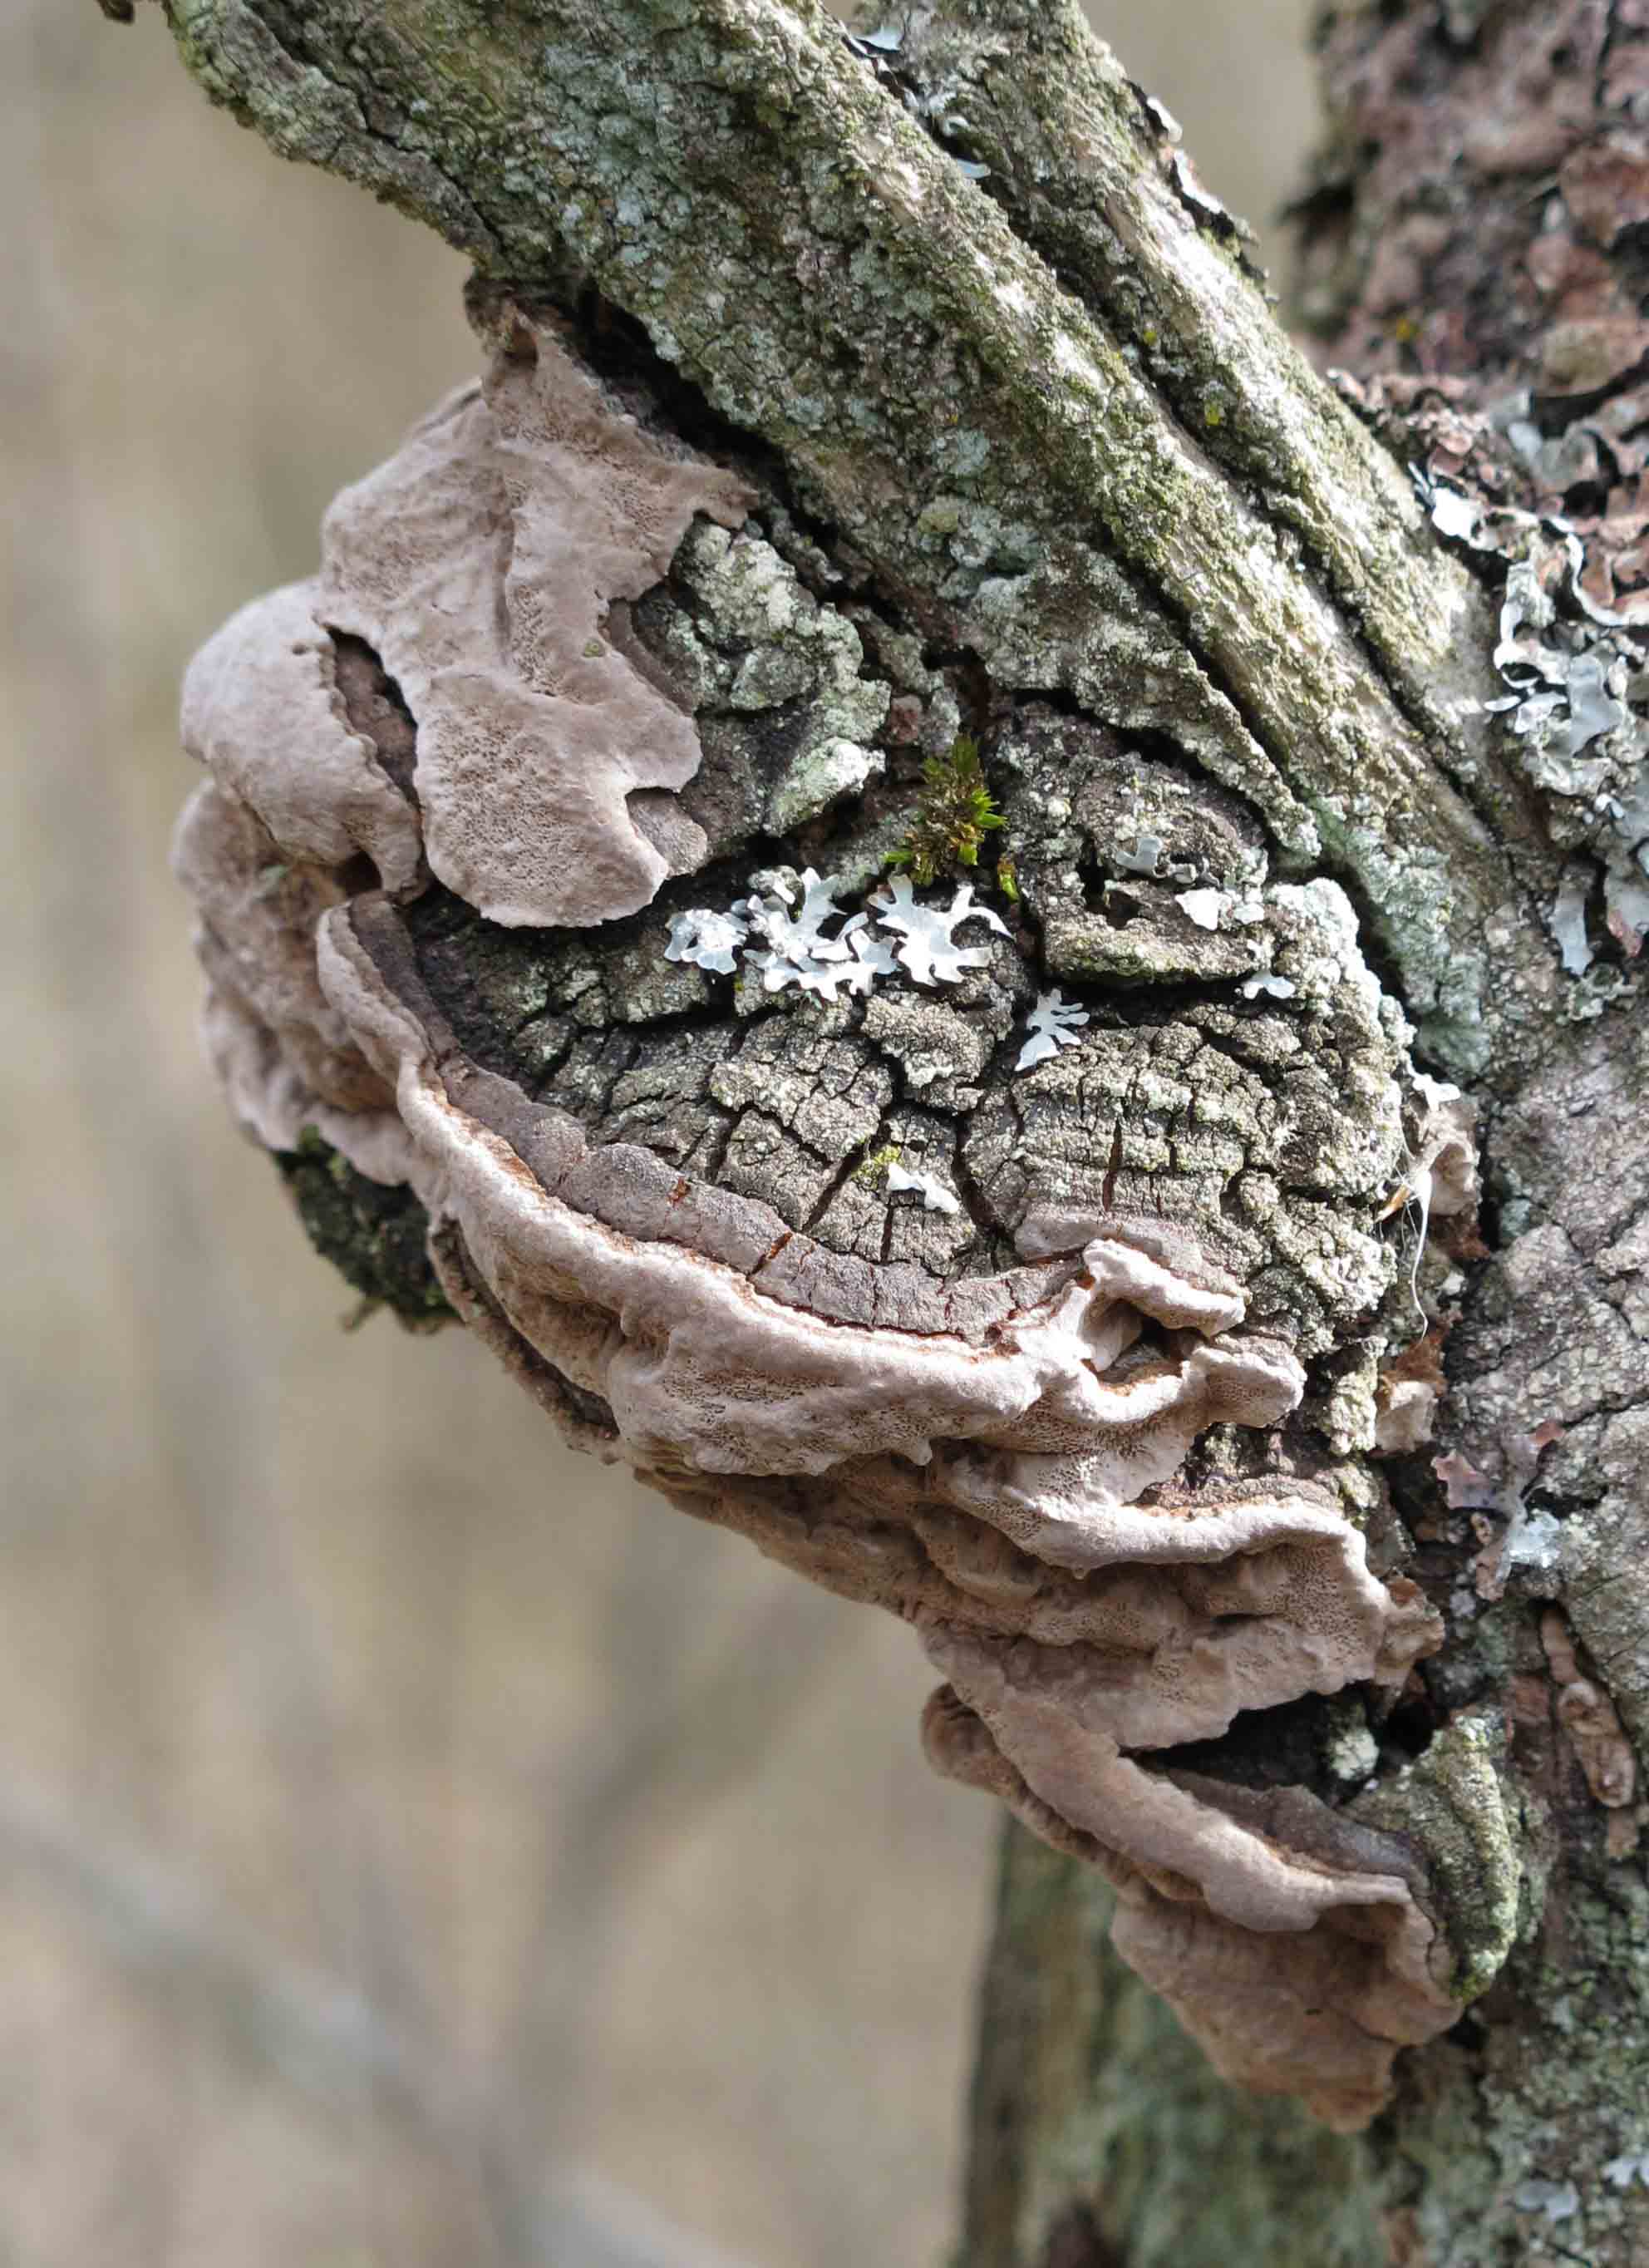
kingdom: Fungi
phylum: Basidiomycota
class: Agaricomycetes
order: Hymenochaetales
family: Hymenochaetaceae
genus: Phellinus
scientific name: Phellinus tremulae
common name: aspe-ildporesvamp
